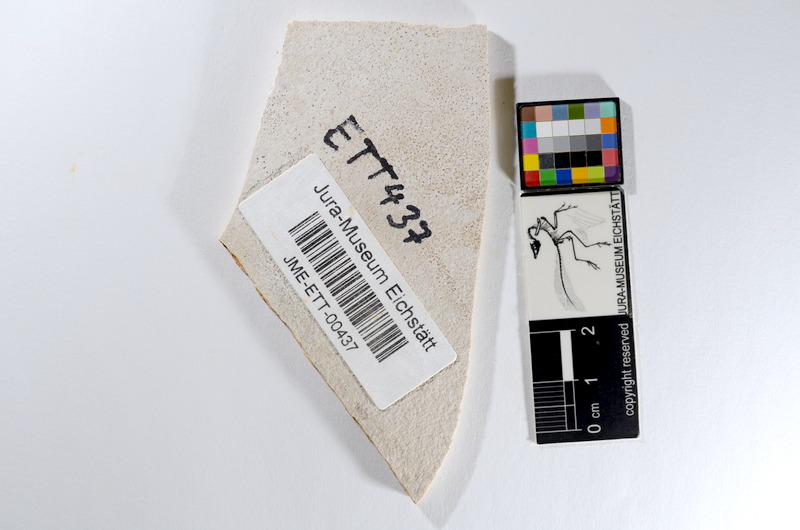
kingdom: Animalia
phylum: Chordata
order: Salmoniformes
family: Orthogonikleithridae
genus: Orthogonikleithrus
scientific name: Orthogonikleithrus hoelli
